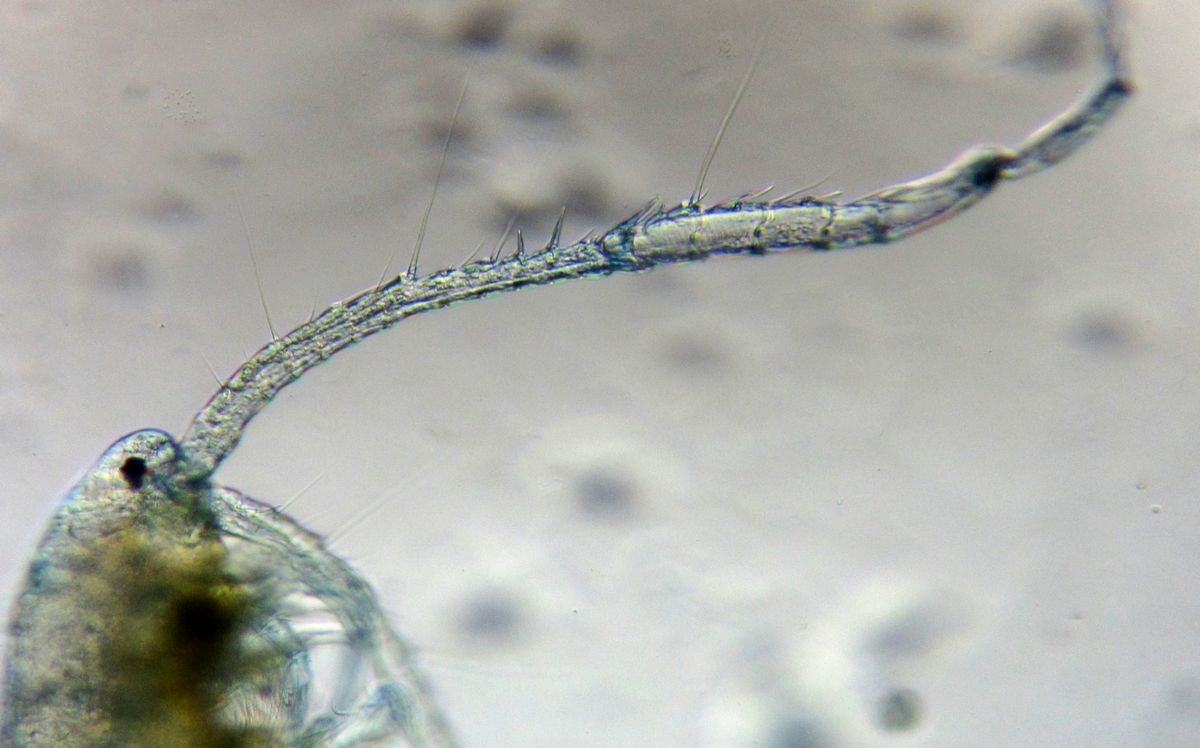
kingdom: Animalia
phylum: Arthropoda
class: Copepoda
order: Calanoida
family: Diaptomidae
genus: Diaptomus
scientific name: Diaptomus zografi
